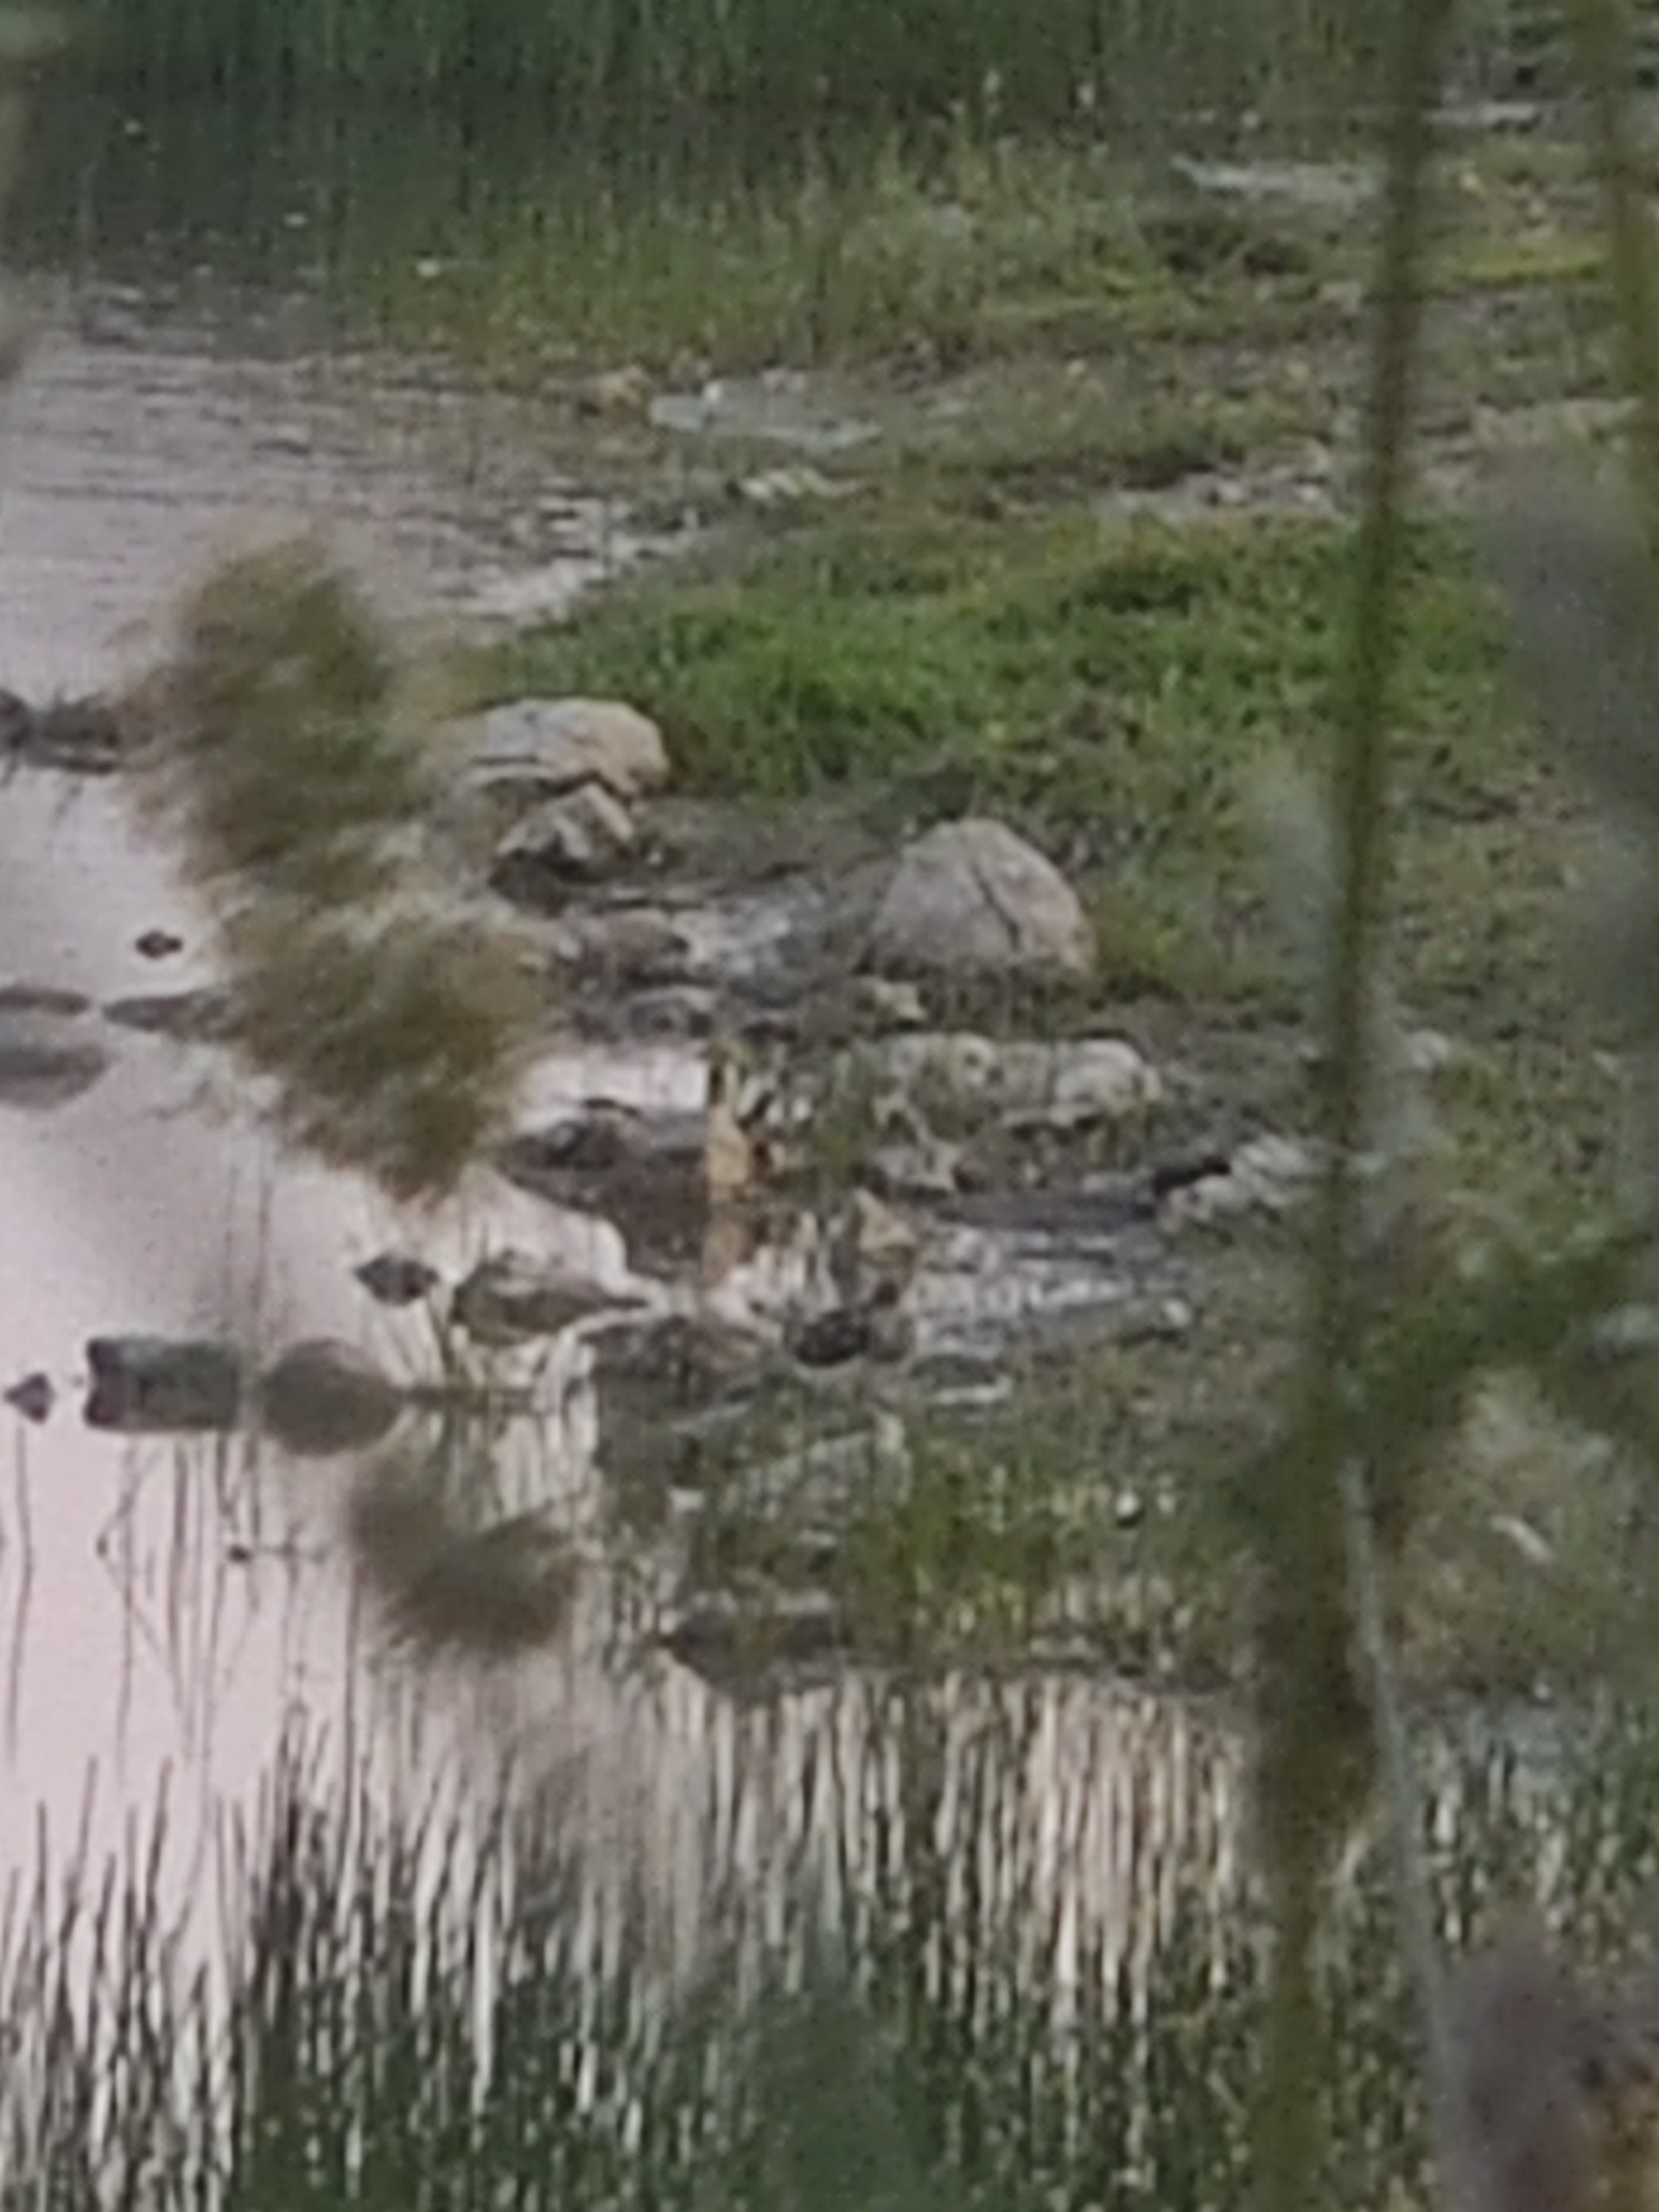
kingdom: Animalia
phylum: Chordata
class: Aves
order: Charadriiformes
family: Scolopacidae
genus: Tringa
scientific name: Tringa ochropus
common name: Svaleklire
